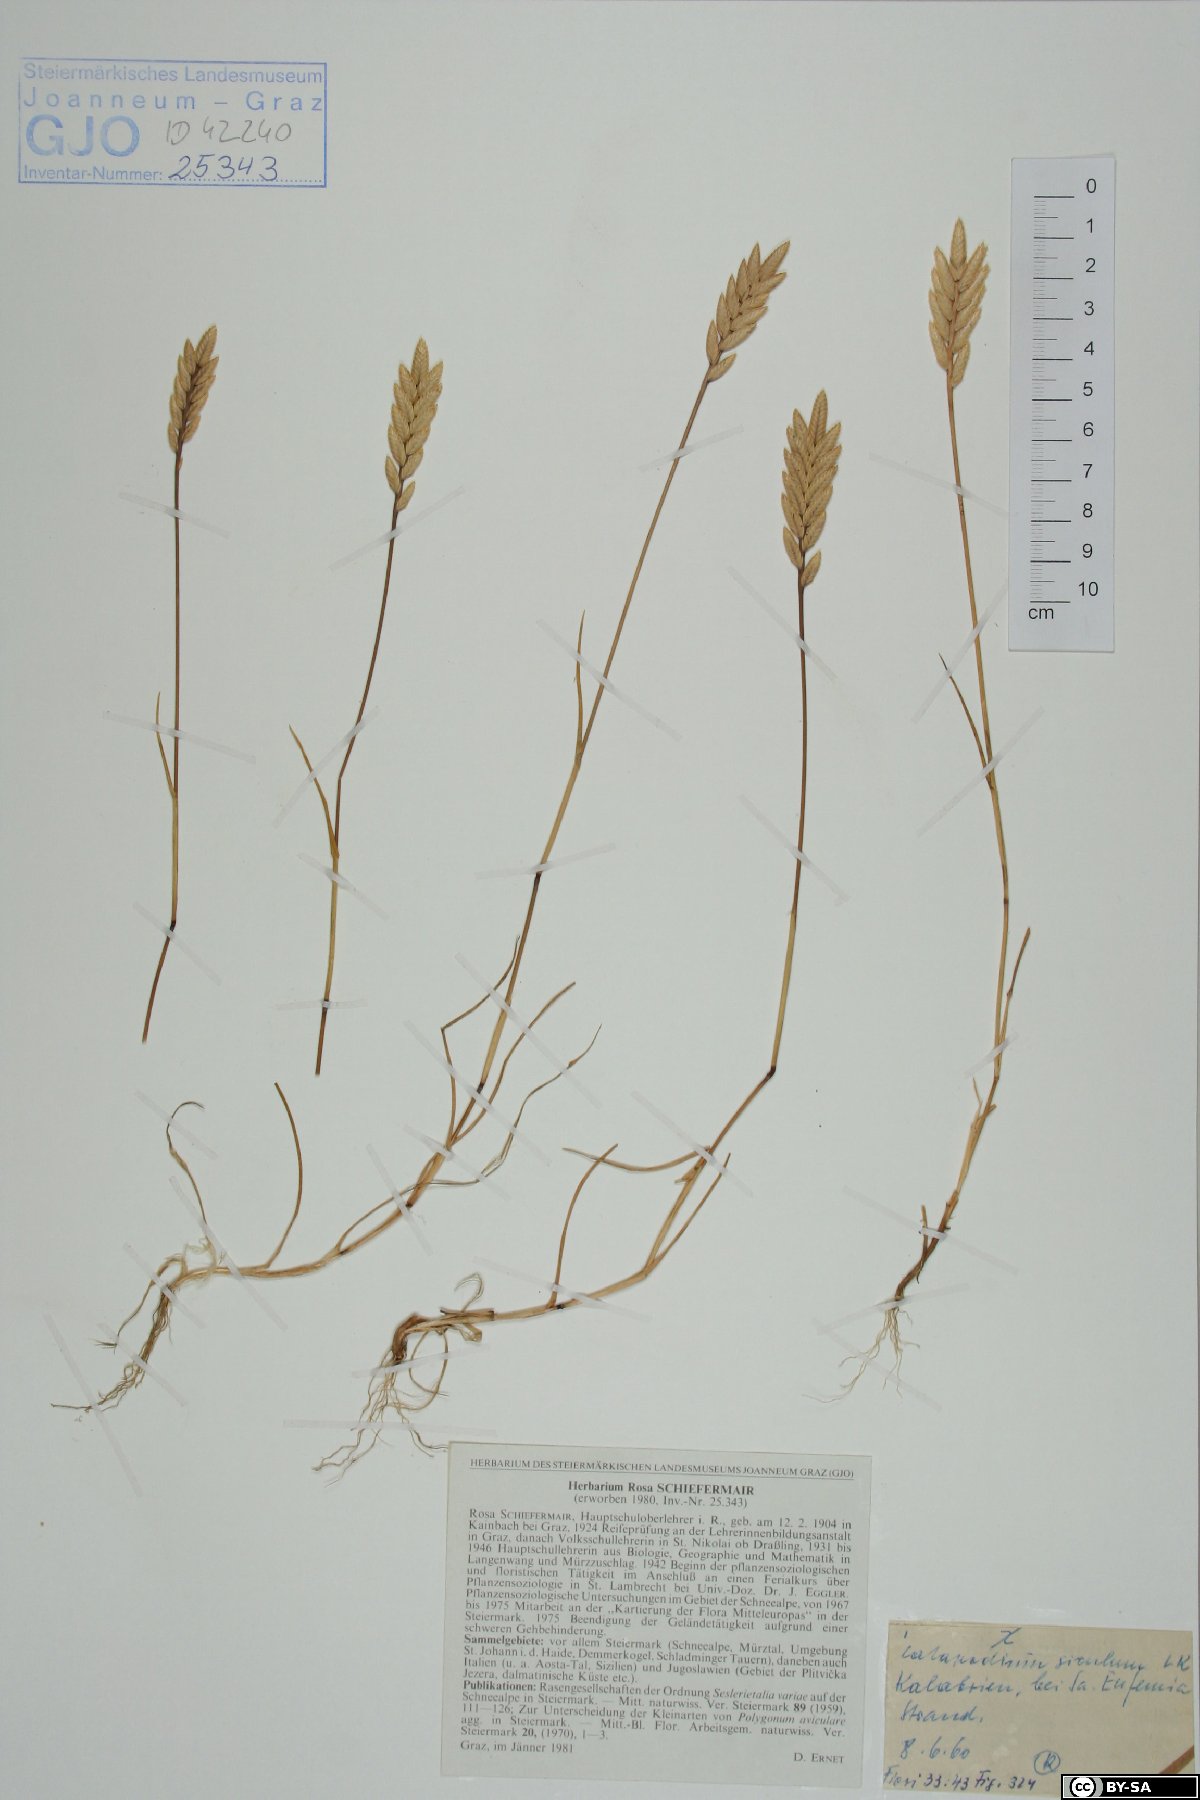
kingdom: Plantae
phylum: Tracheophyta
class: Liliopsida
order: Poales
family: Poaceae
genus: Desmazeria
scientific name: Desmazeria sicula
